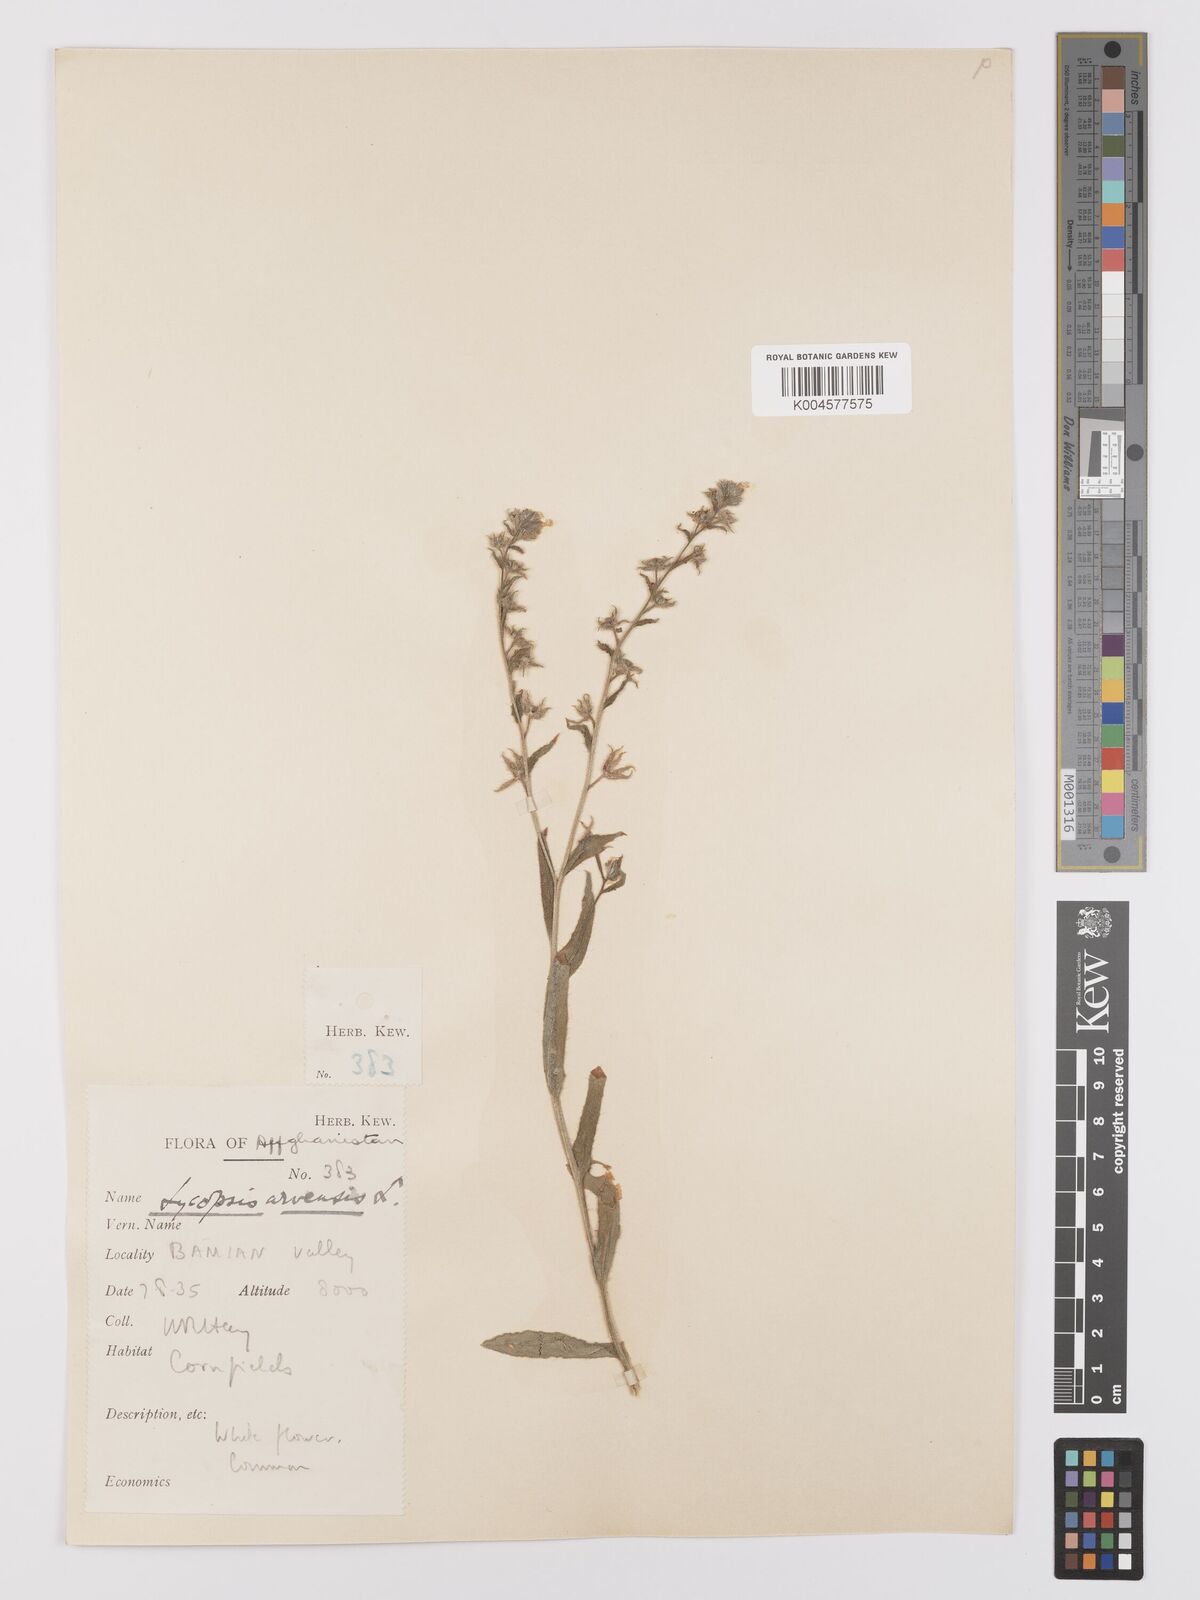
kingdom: Plantae
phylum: Tracheophyta
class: Magnoliopsida
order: Boraginales
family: Boraginaceae
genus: Lycopsis
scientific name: Lycopsis arvensis
